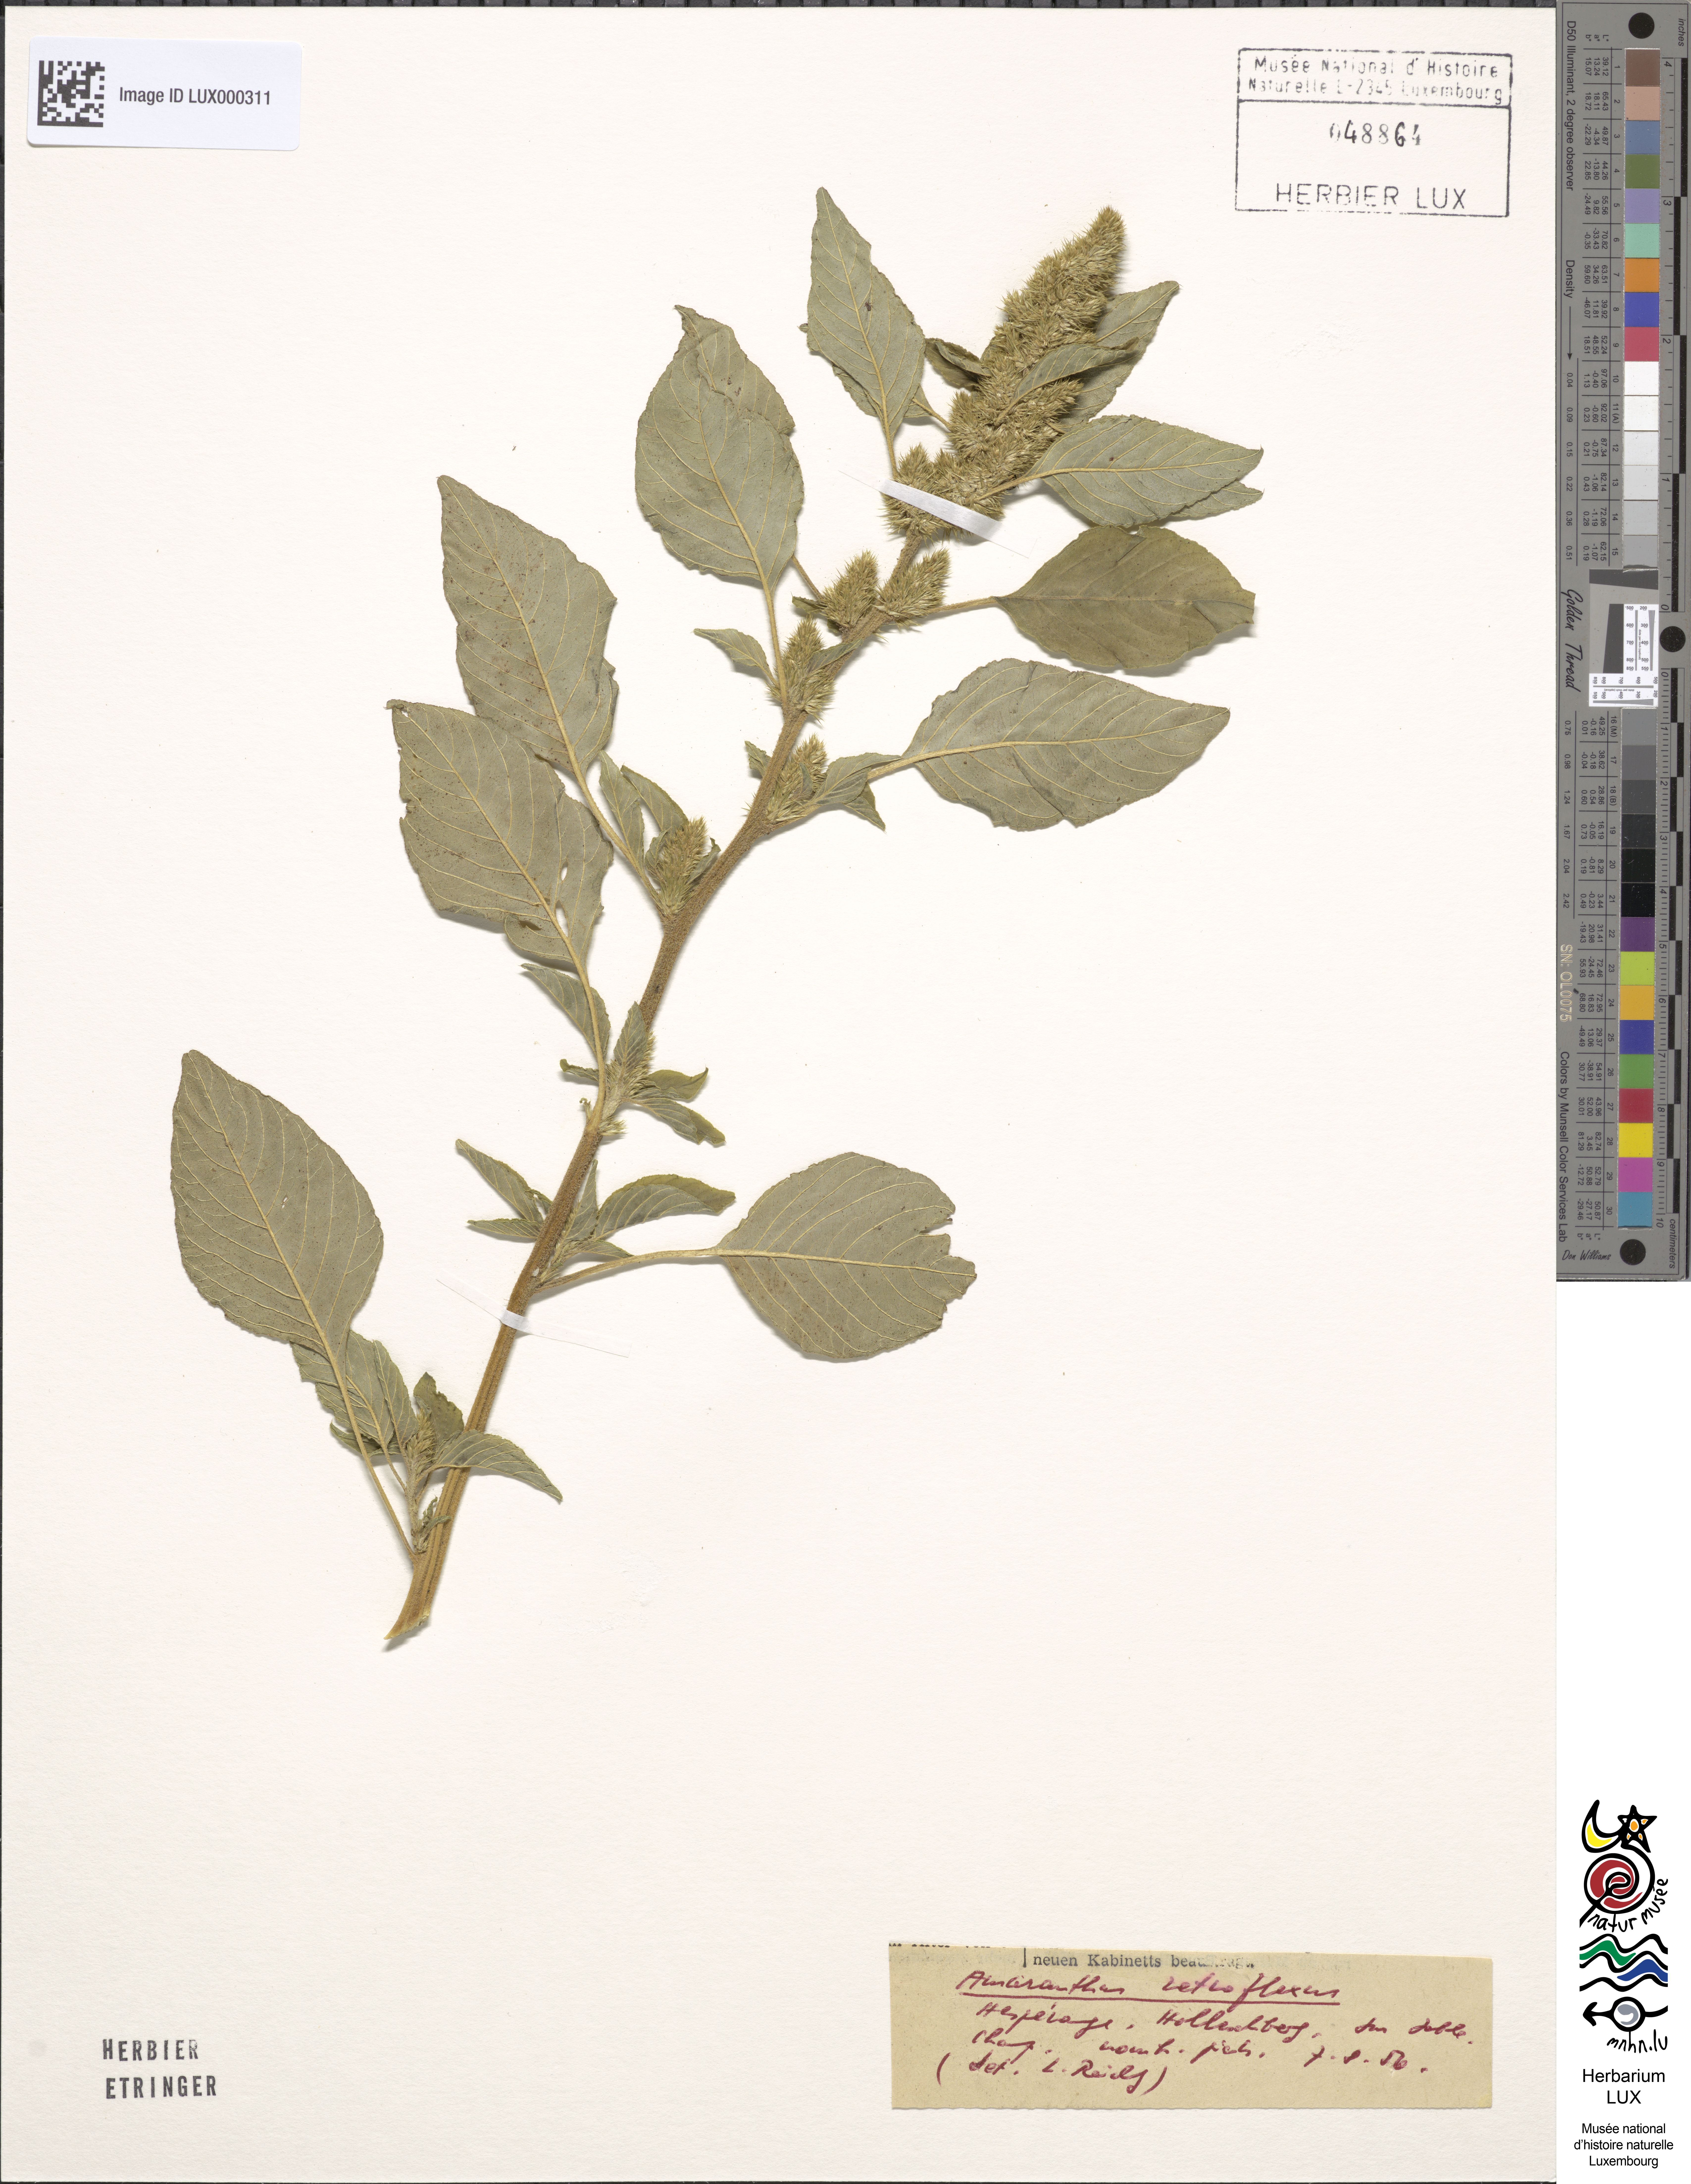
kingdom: Plantae
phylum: Tracheophyta
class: Magnoliopsida
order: Caryophyllales
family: Amaranthaceae
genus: Amaranthus
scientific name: Amaranthus retroflexus
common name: Redroot amaranth
